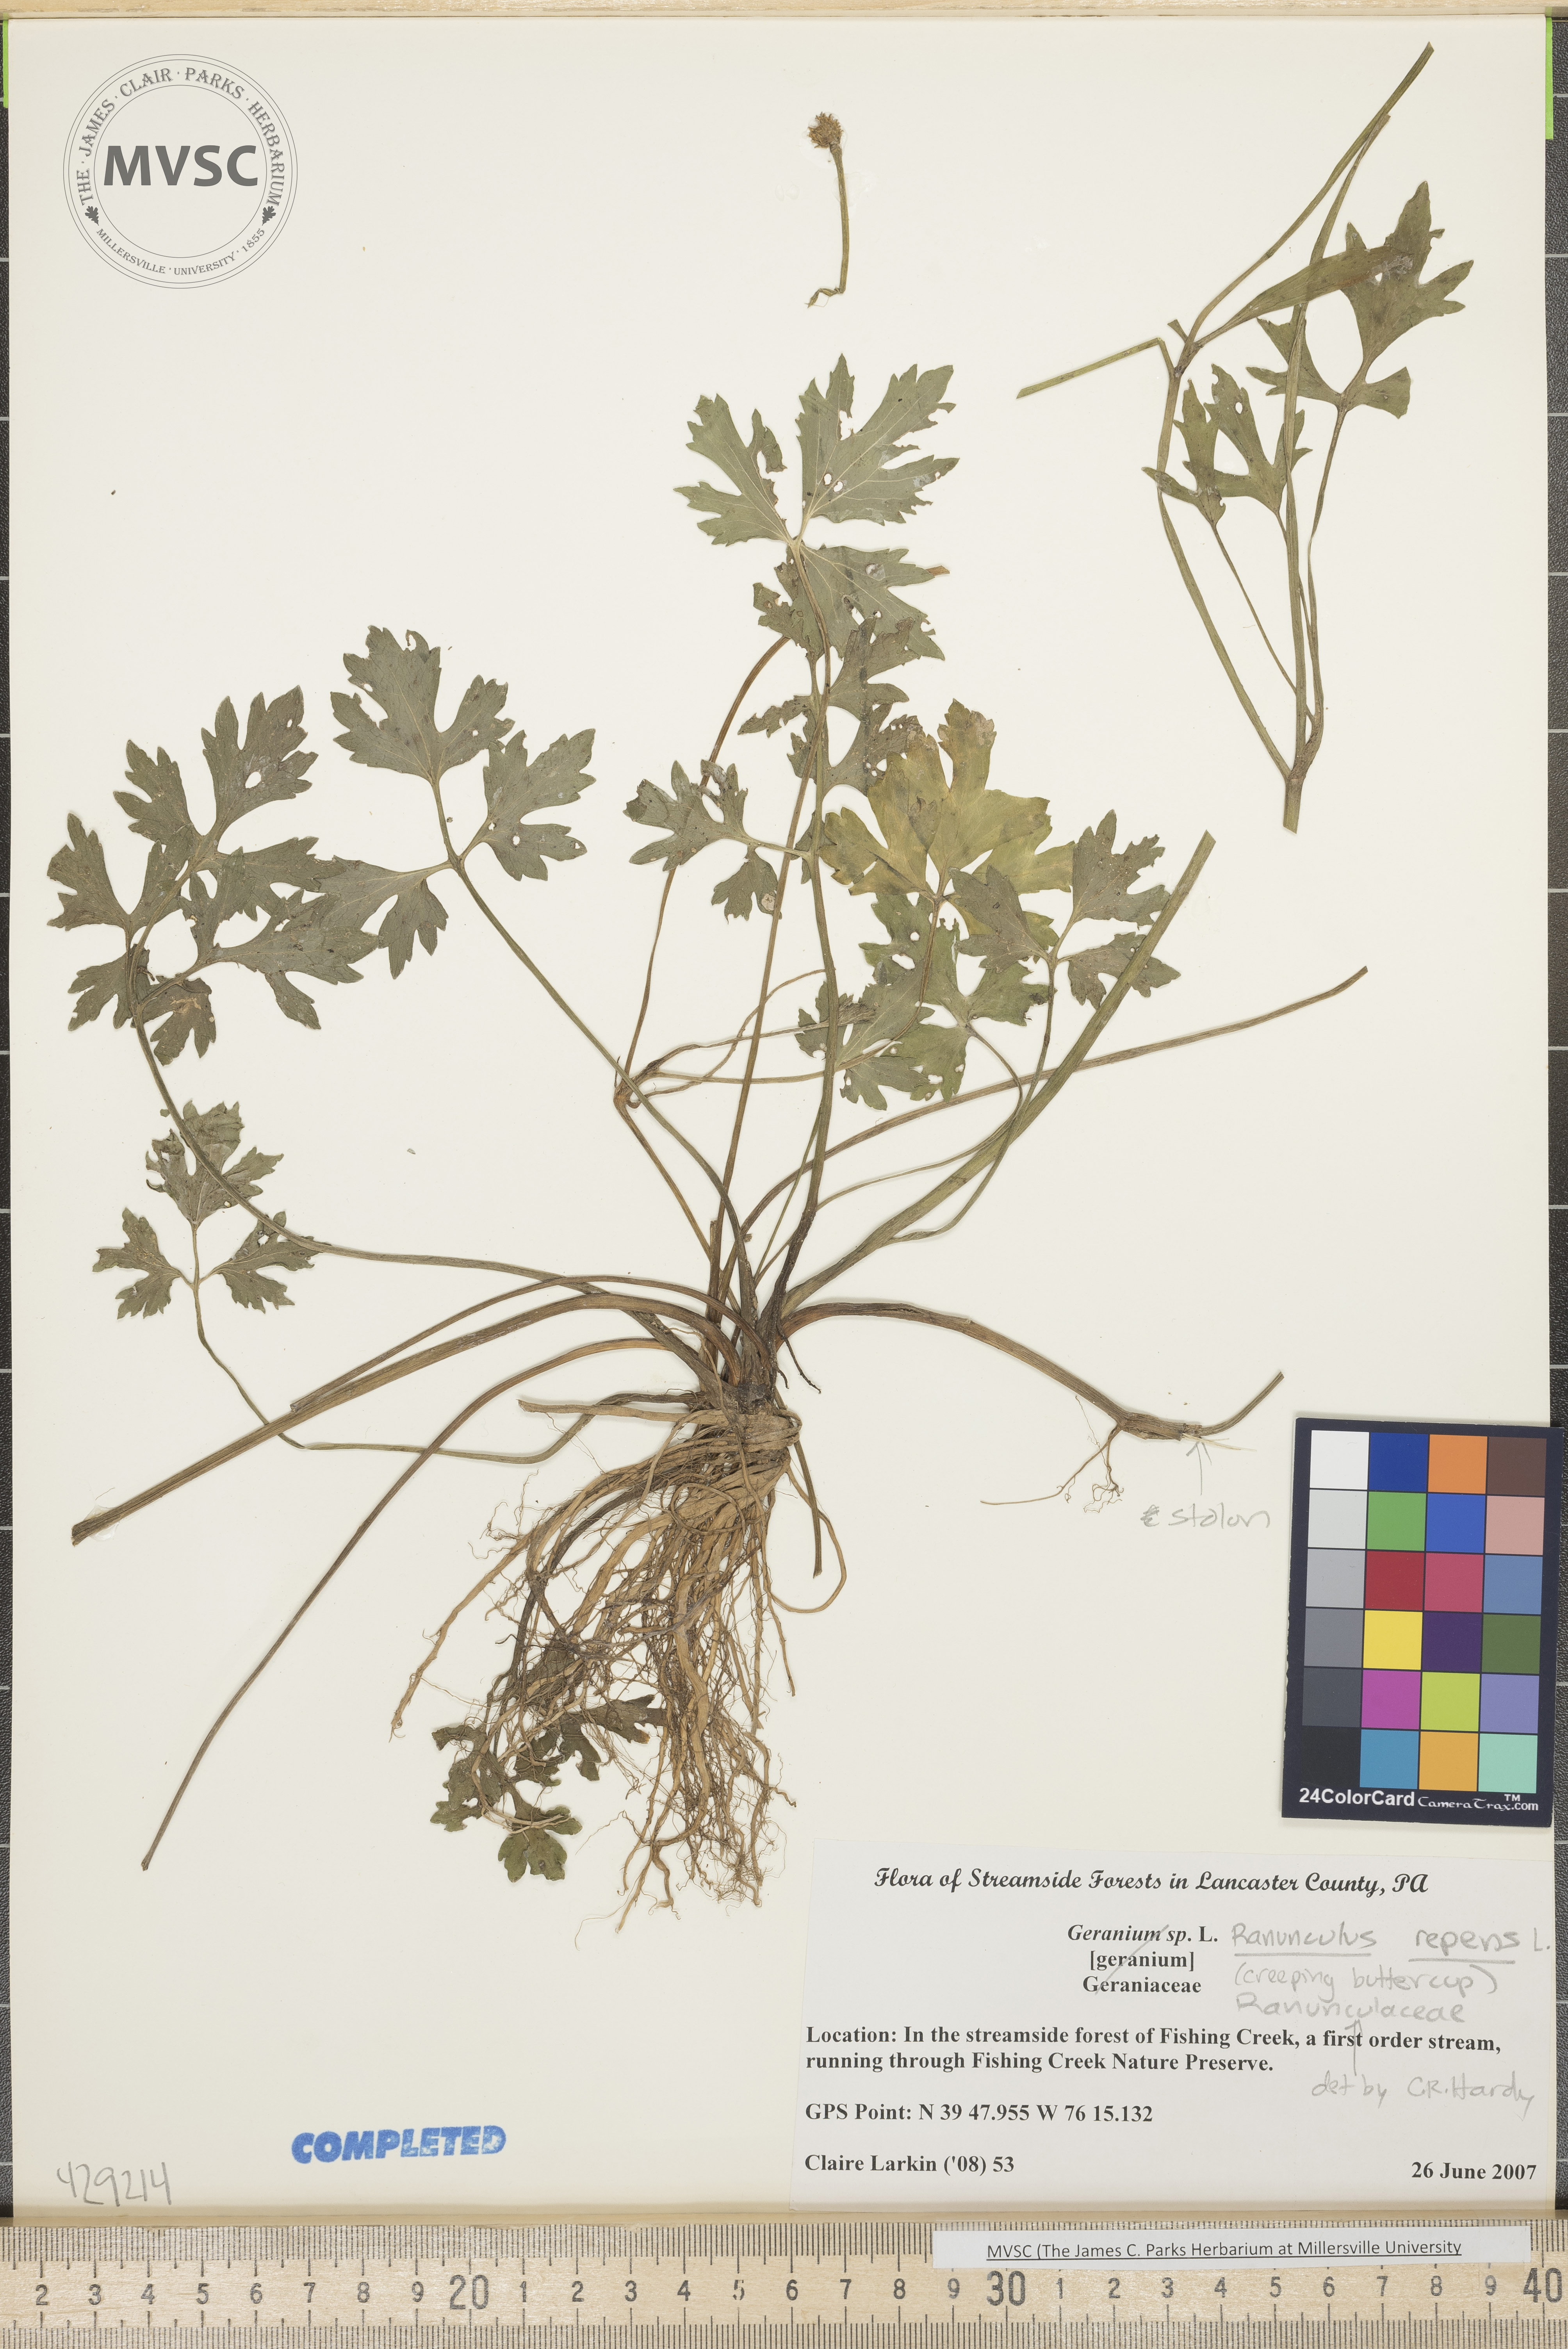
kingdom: Plantae
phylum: Tracheophyta
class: Magnoliopsida
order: Ranunculales
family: Ranunculaceae
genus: Ranunculus
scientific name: Ranunculus repens
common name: Creeping buttercup
